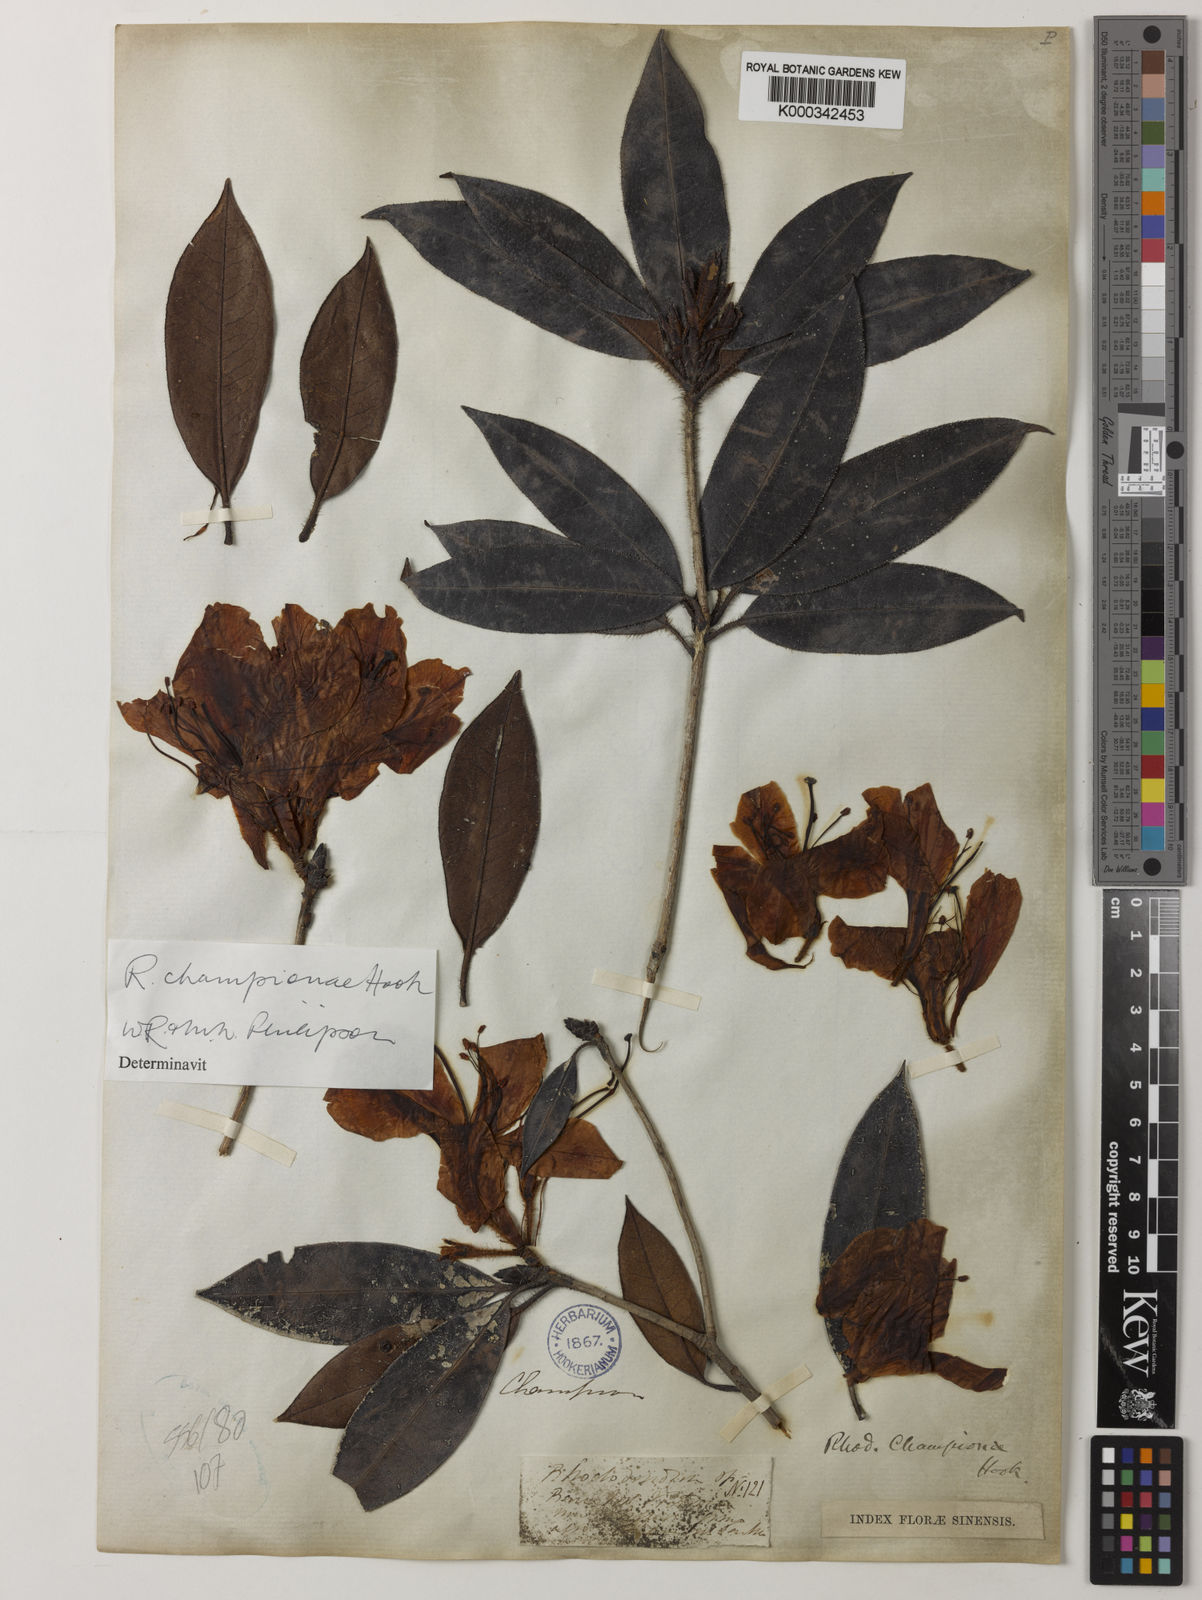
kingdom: Plantae
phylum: Tracheophyta
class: Magnoliopsida
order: Ericales
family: Ericaceae
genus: Rhododendron
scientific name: Rhododendron championiae
